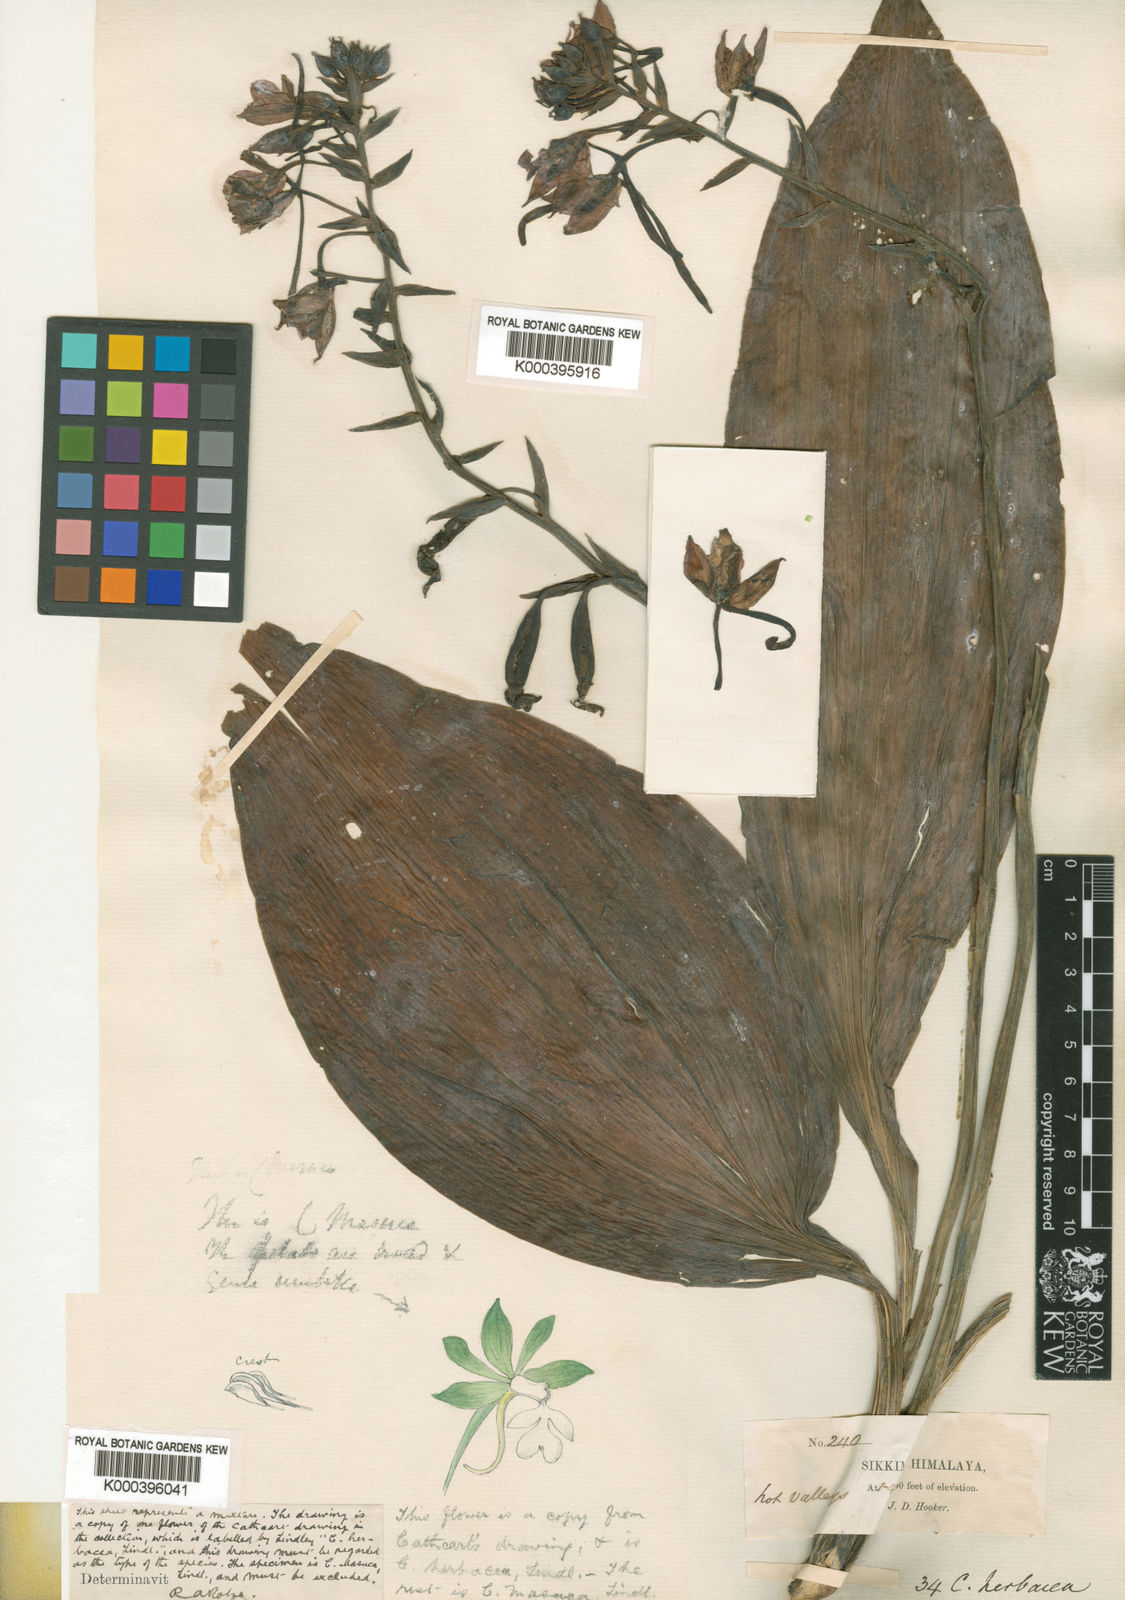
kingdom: Plantae
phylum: Tracheophyta
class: Liliopsida
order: Asparagales
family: Orchidaceae
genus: Calanthe
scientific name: Calanthe masuca
